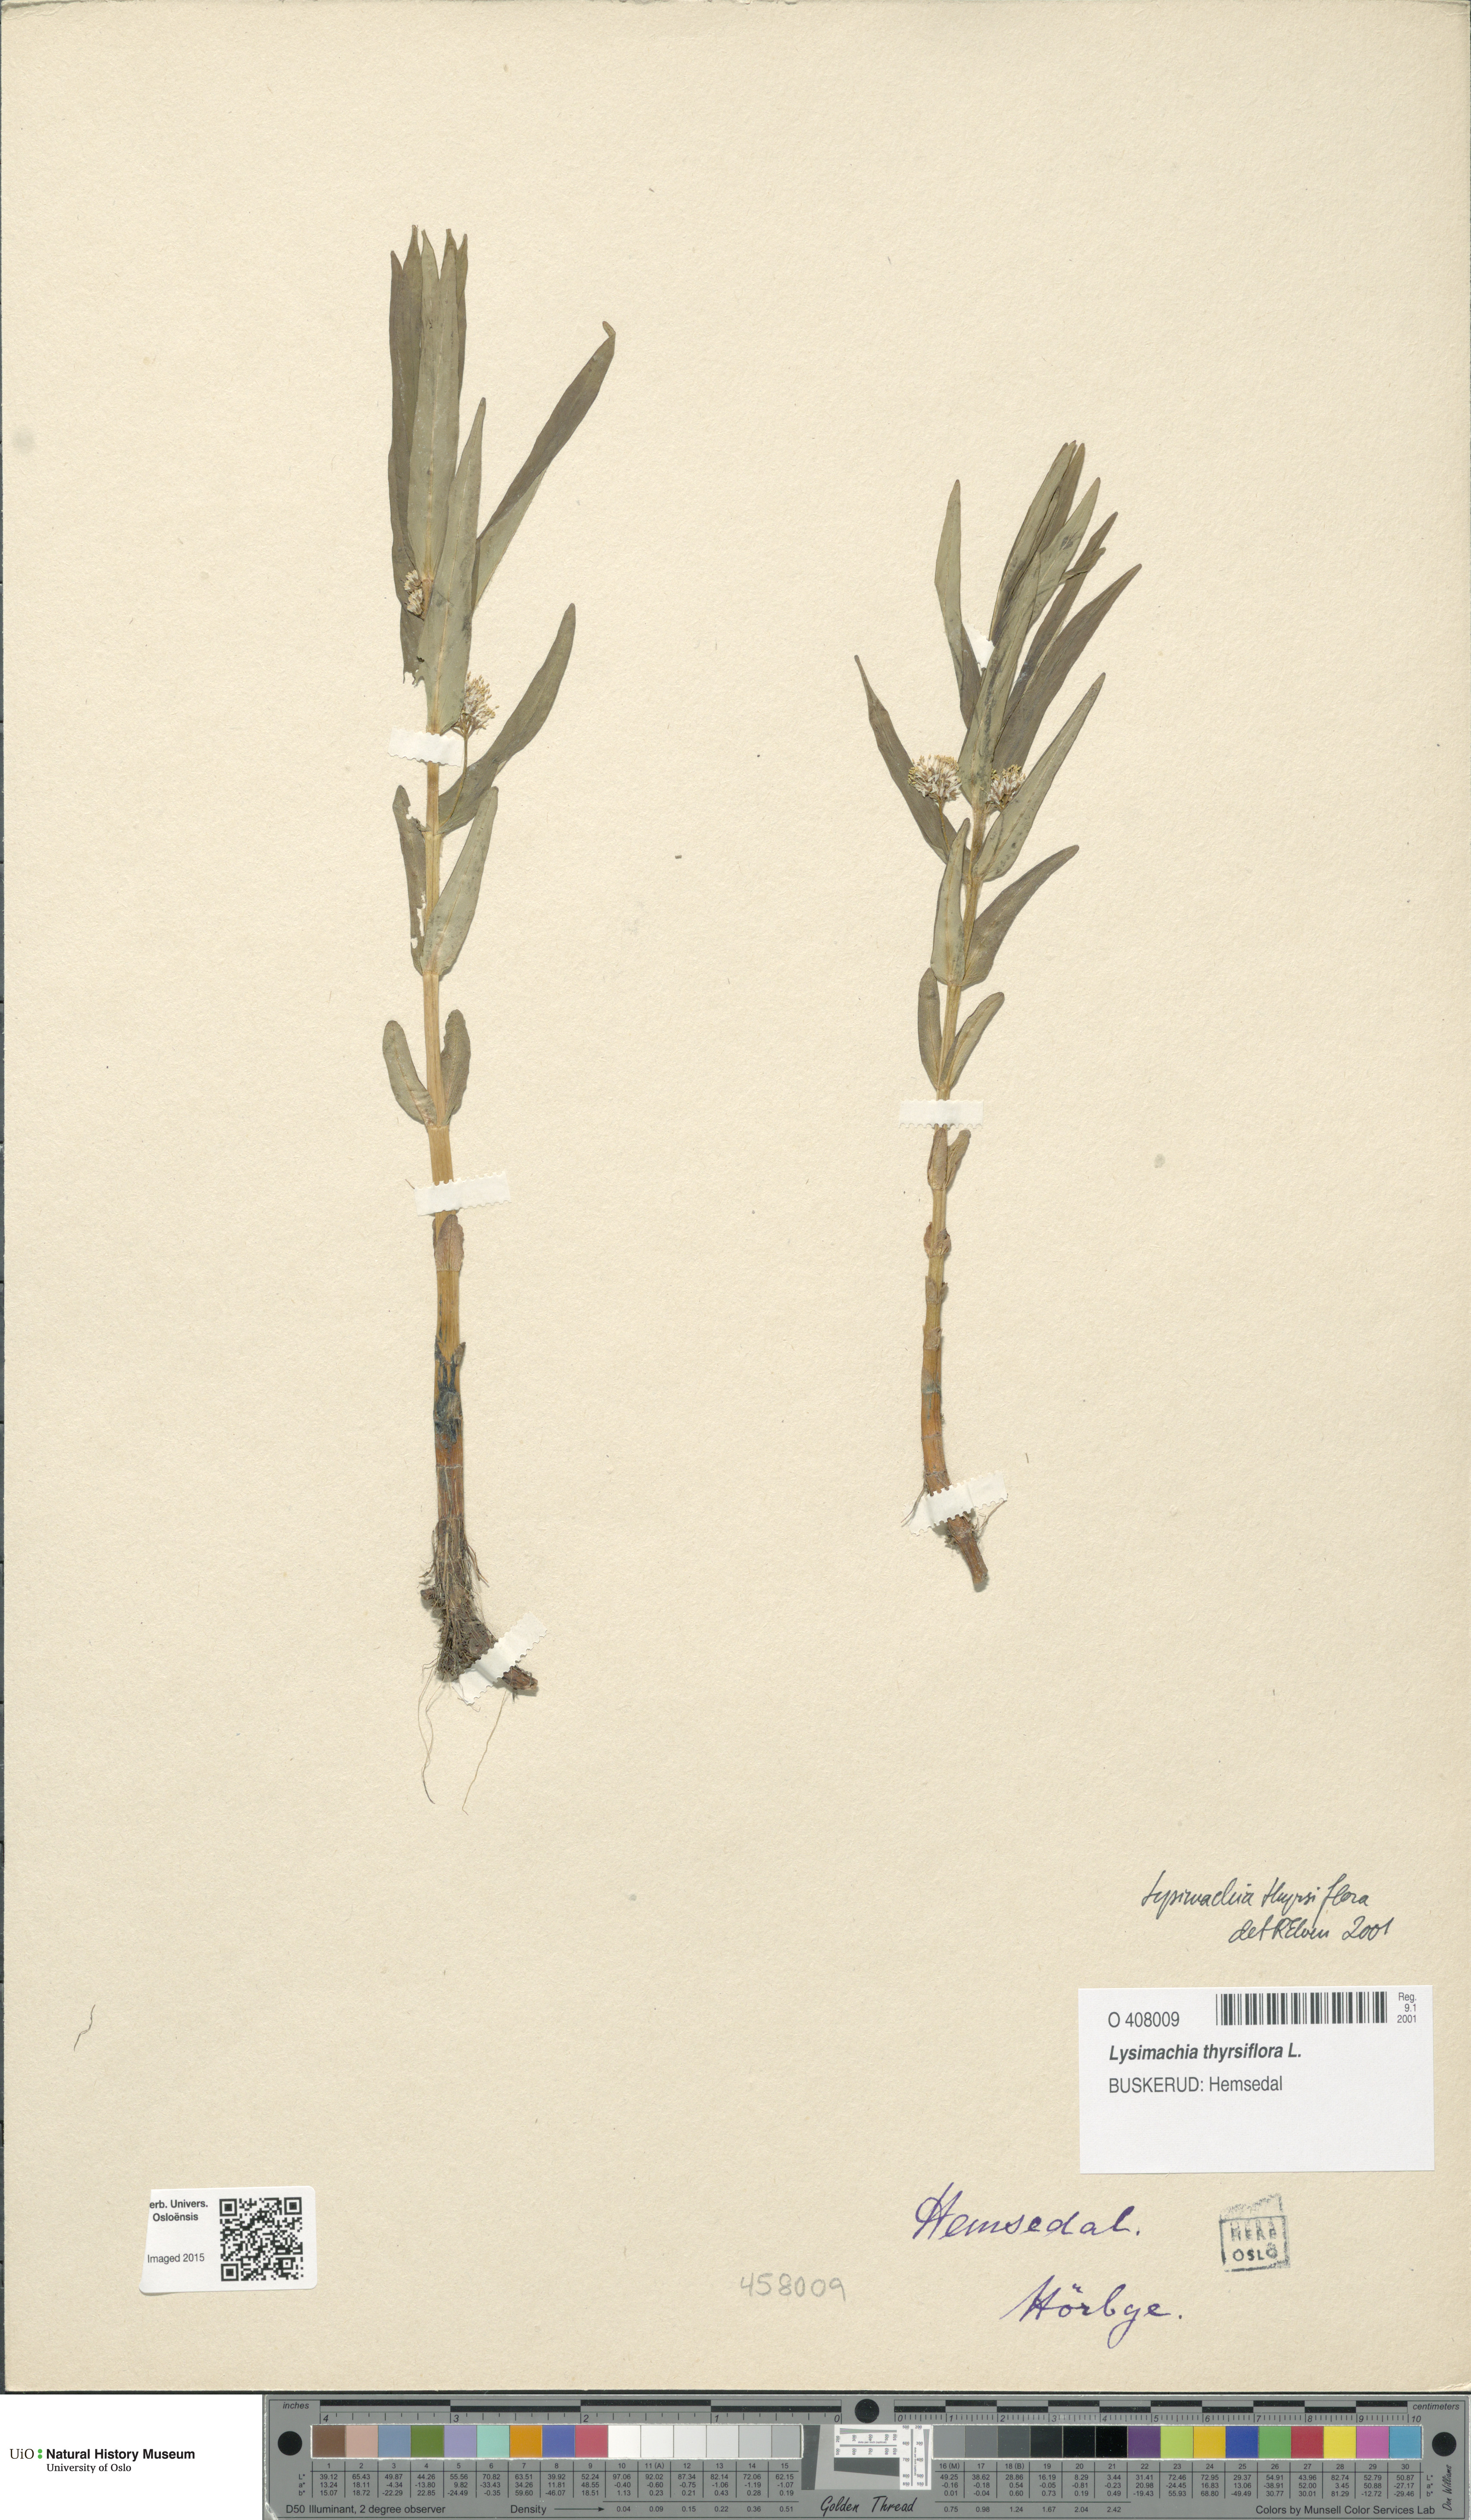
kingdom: Plantae
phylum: Tracheophyta
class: Magnoliopsida
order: Ericales
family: Primulaceae
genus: Lysimachia
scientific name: Lysimachia thyrsiflora
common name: Tufted loosestrife
